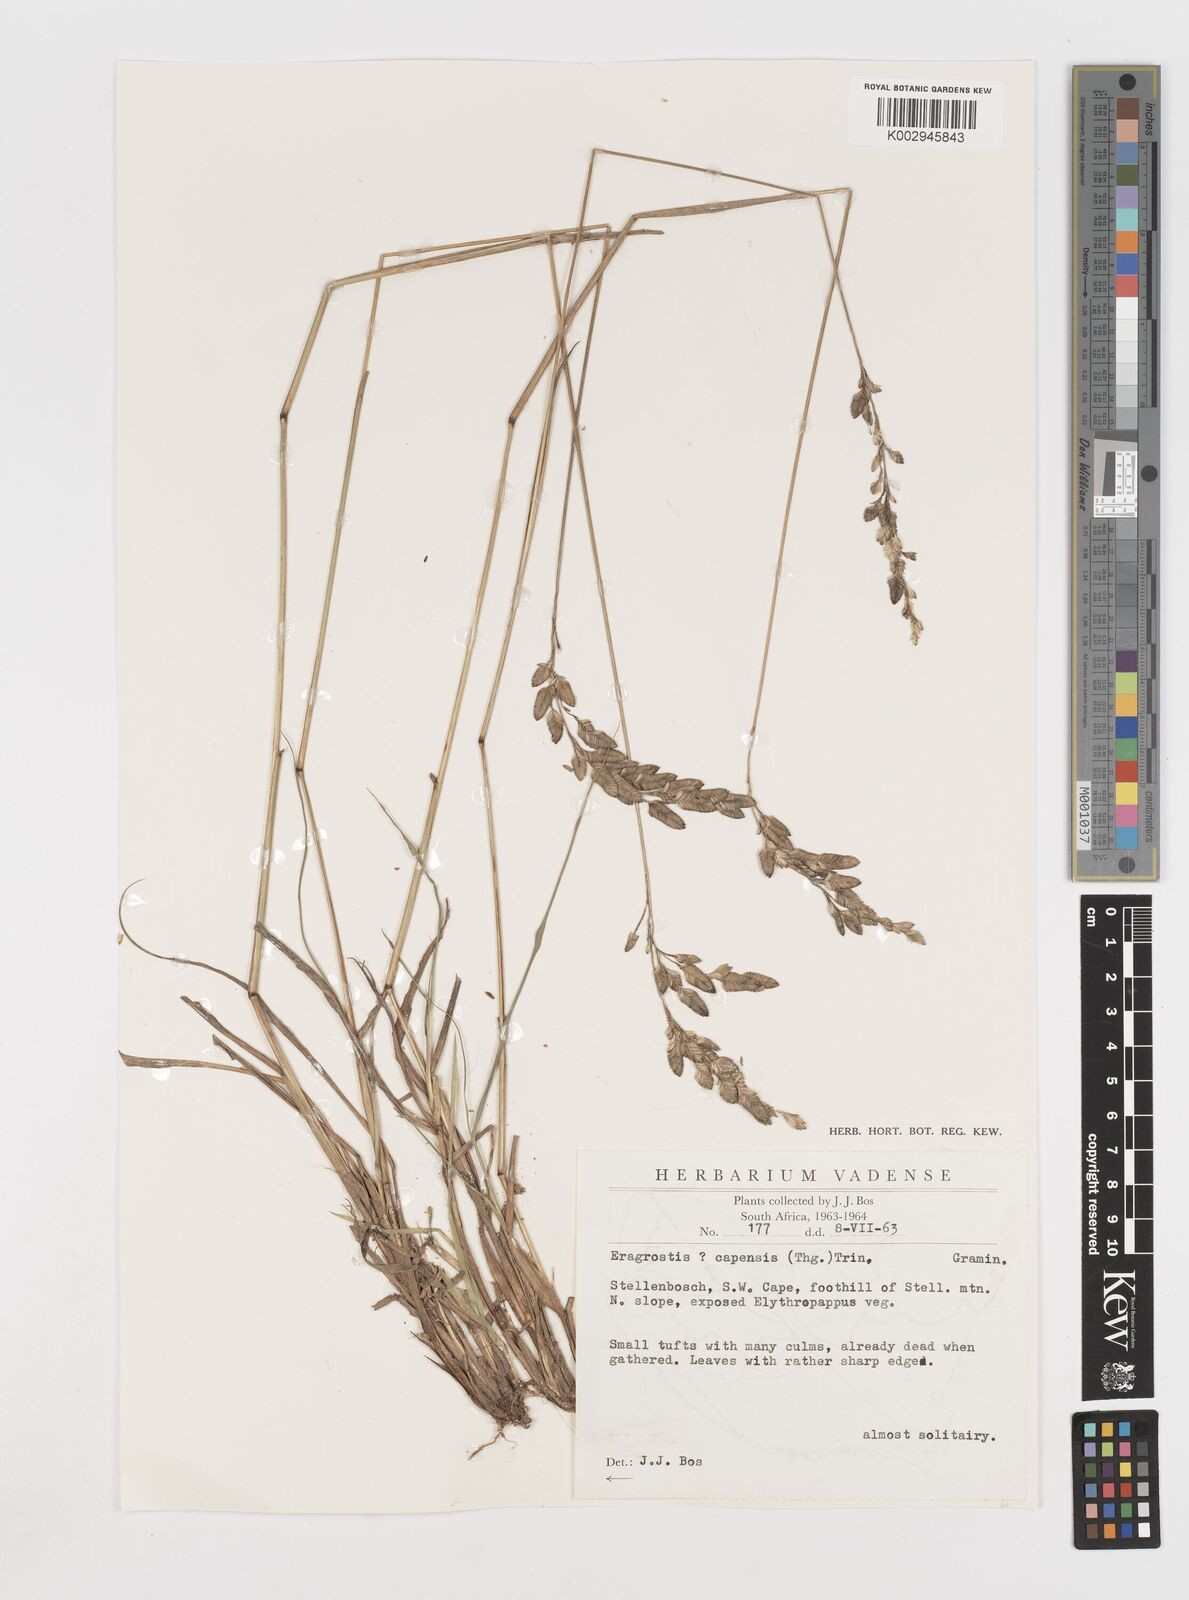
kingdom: Plantae
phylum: Tracheophyta
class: Liliopsida
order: Poales
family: Poaceae
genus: Eragrostis
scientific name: Eragrostis capensis
